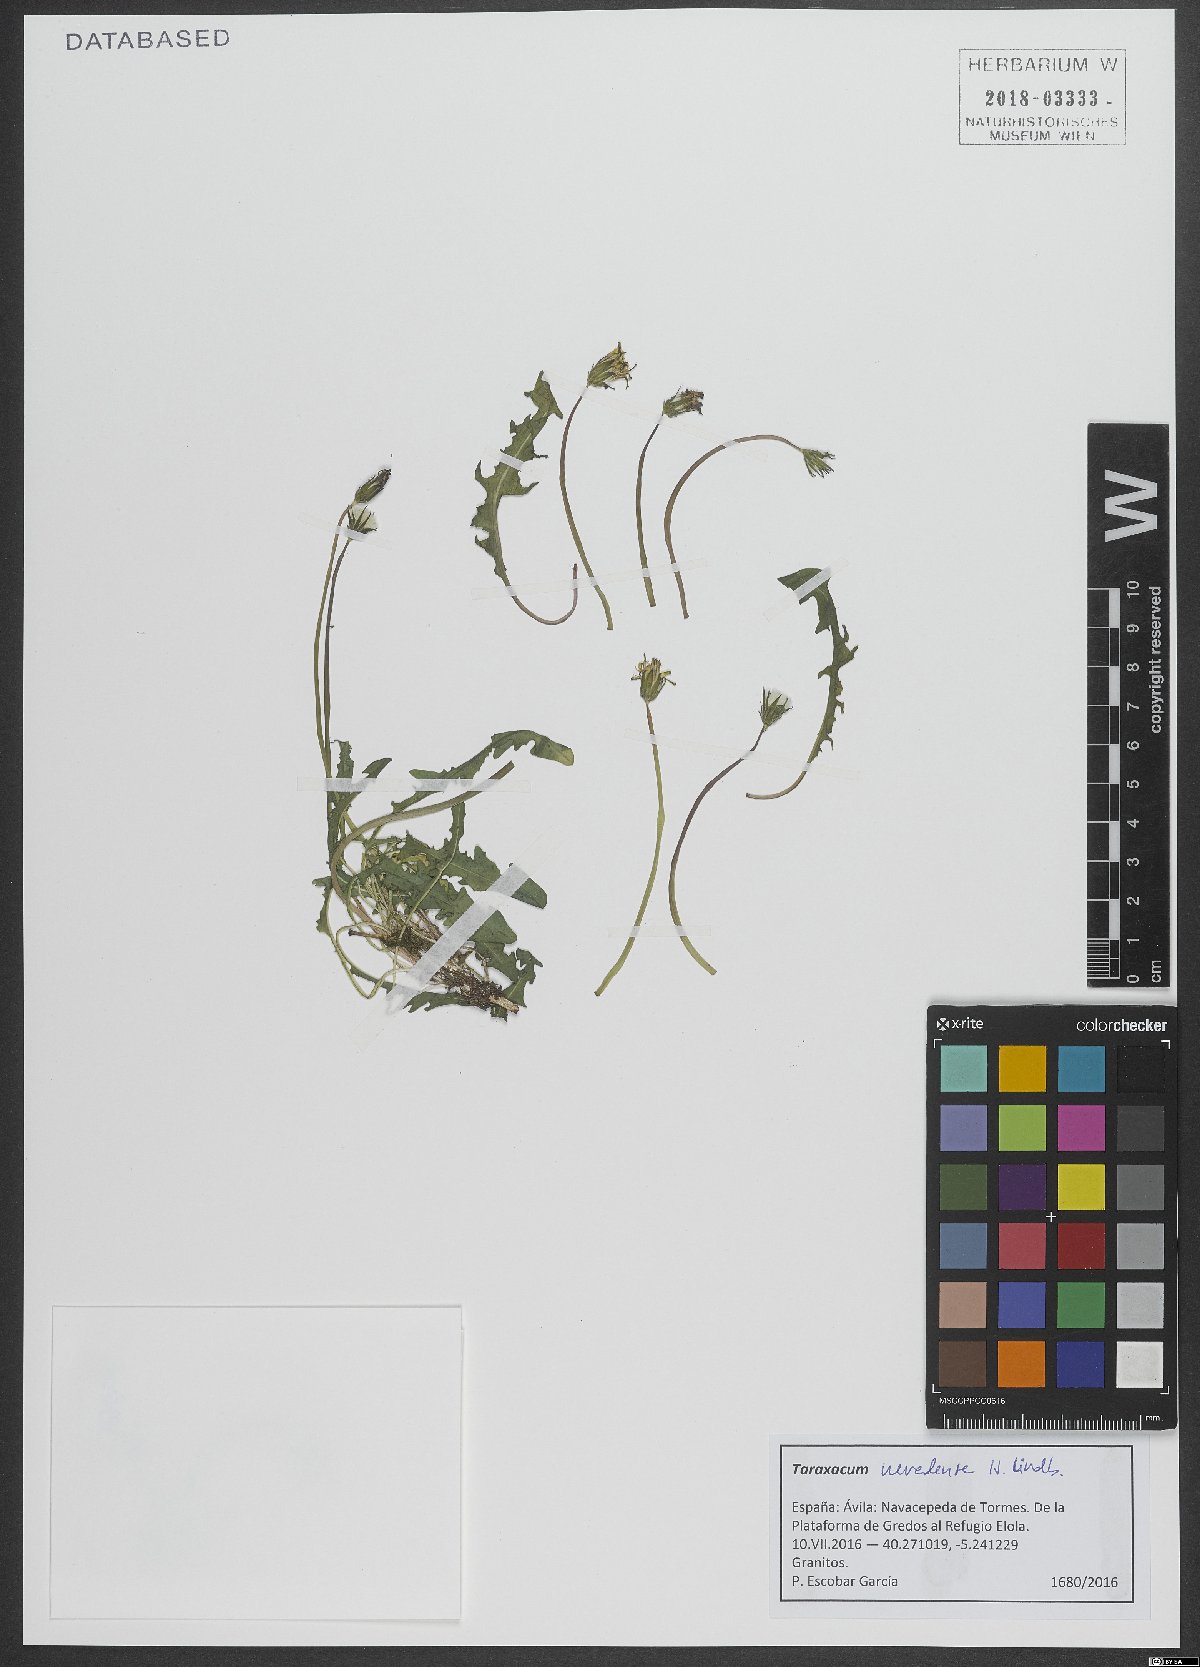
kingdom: Plantae
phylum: Tracheophyta
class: Magnoliopsida
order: Asterales
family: Asteraceae
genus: Taraxacum
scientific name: Taraxacum nevadense
